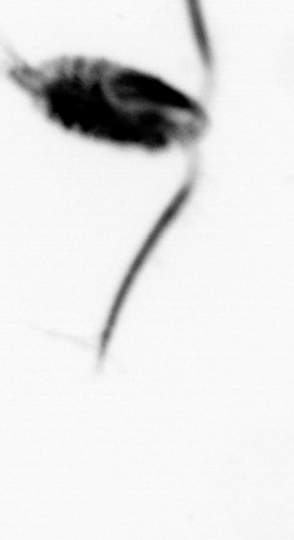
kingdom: Animalia
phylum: Arthropoda
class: Copepoda
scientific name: Copepoda
